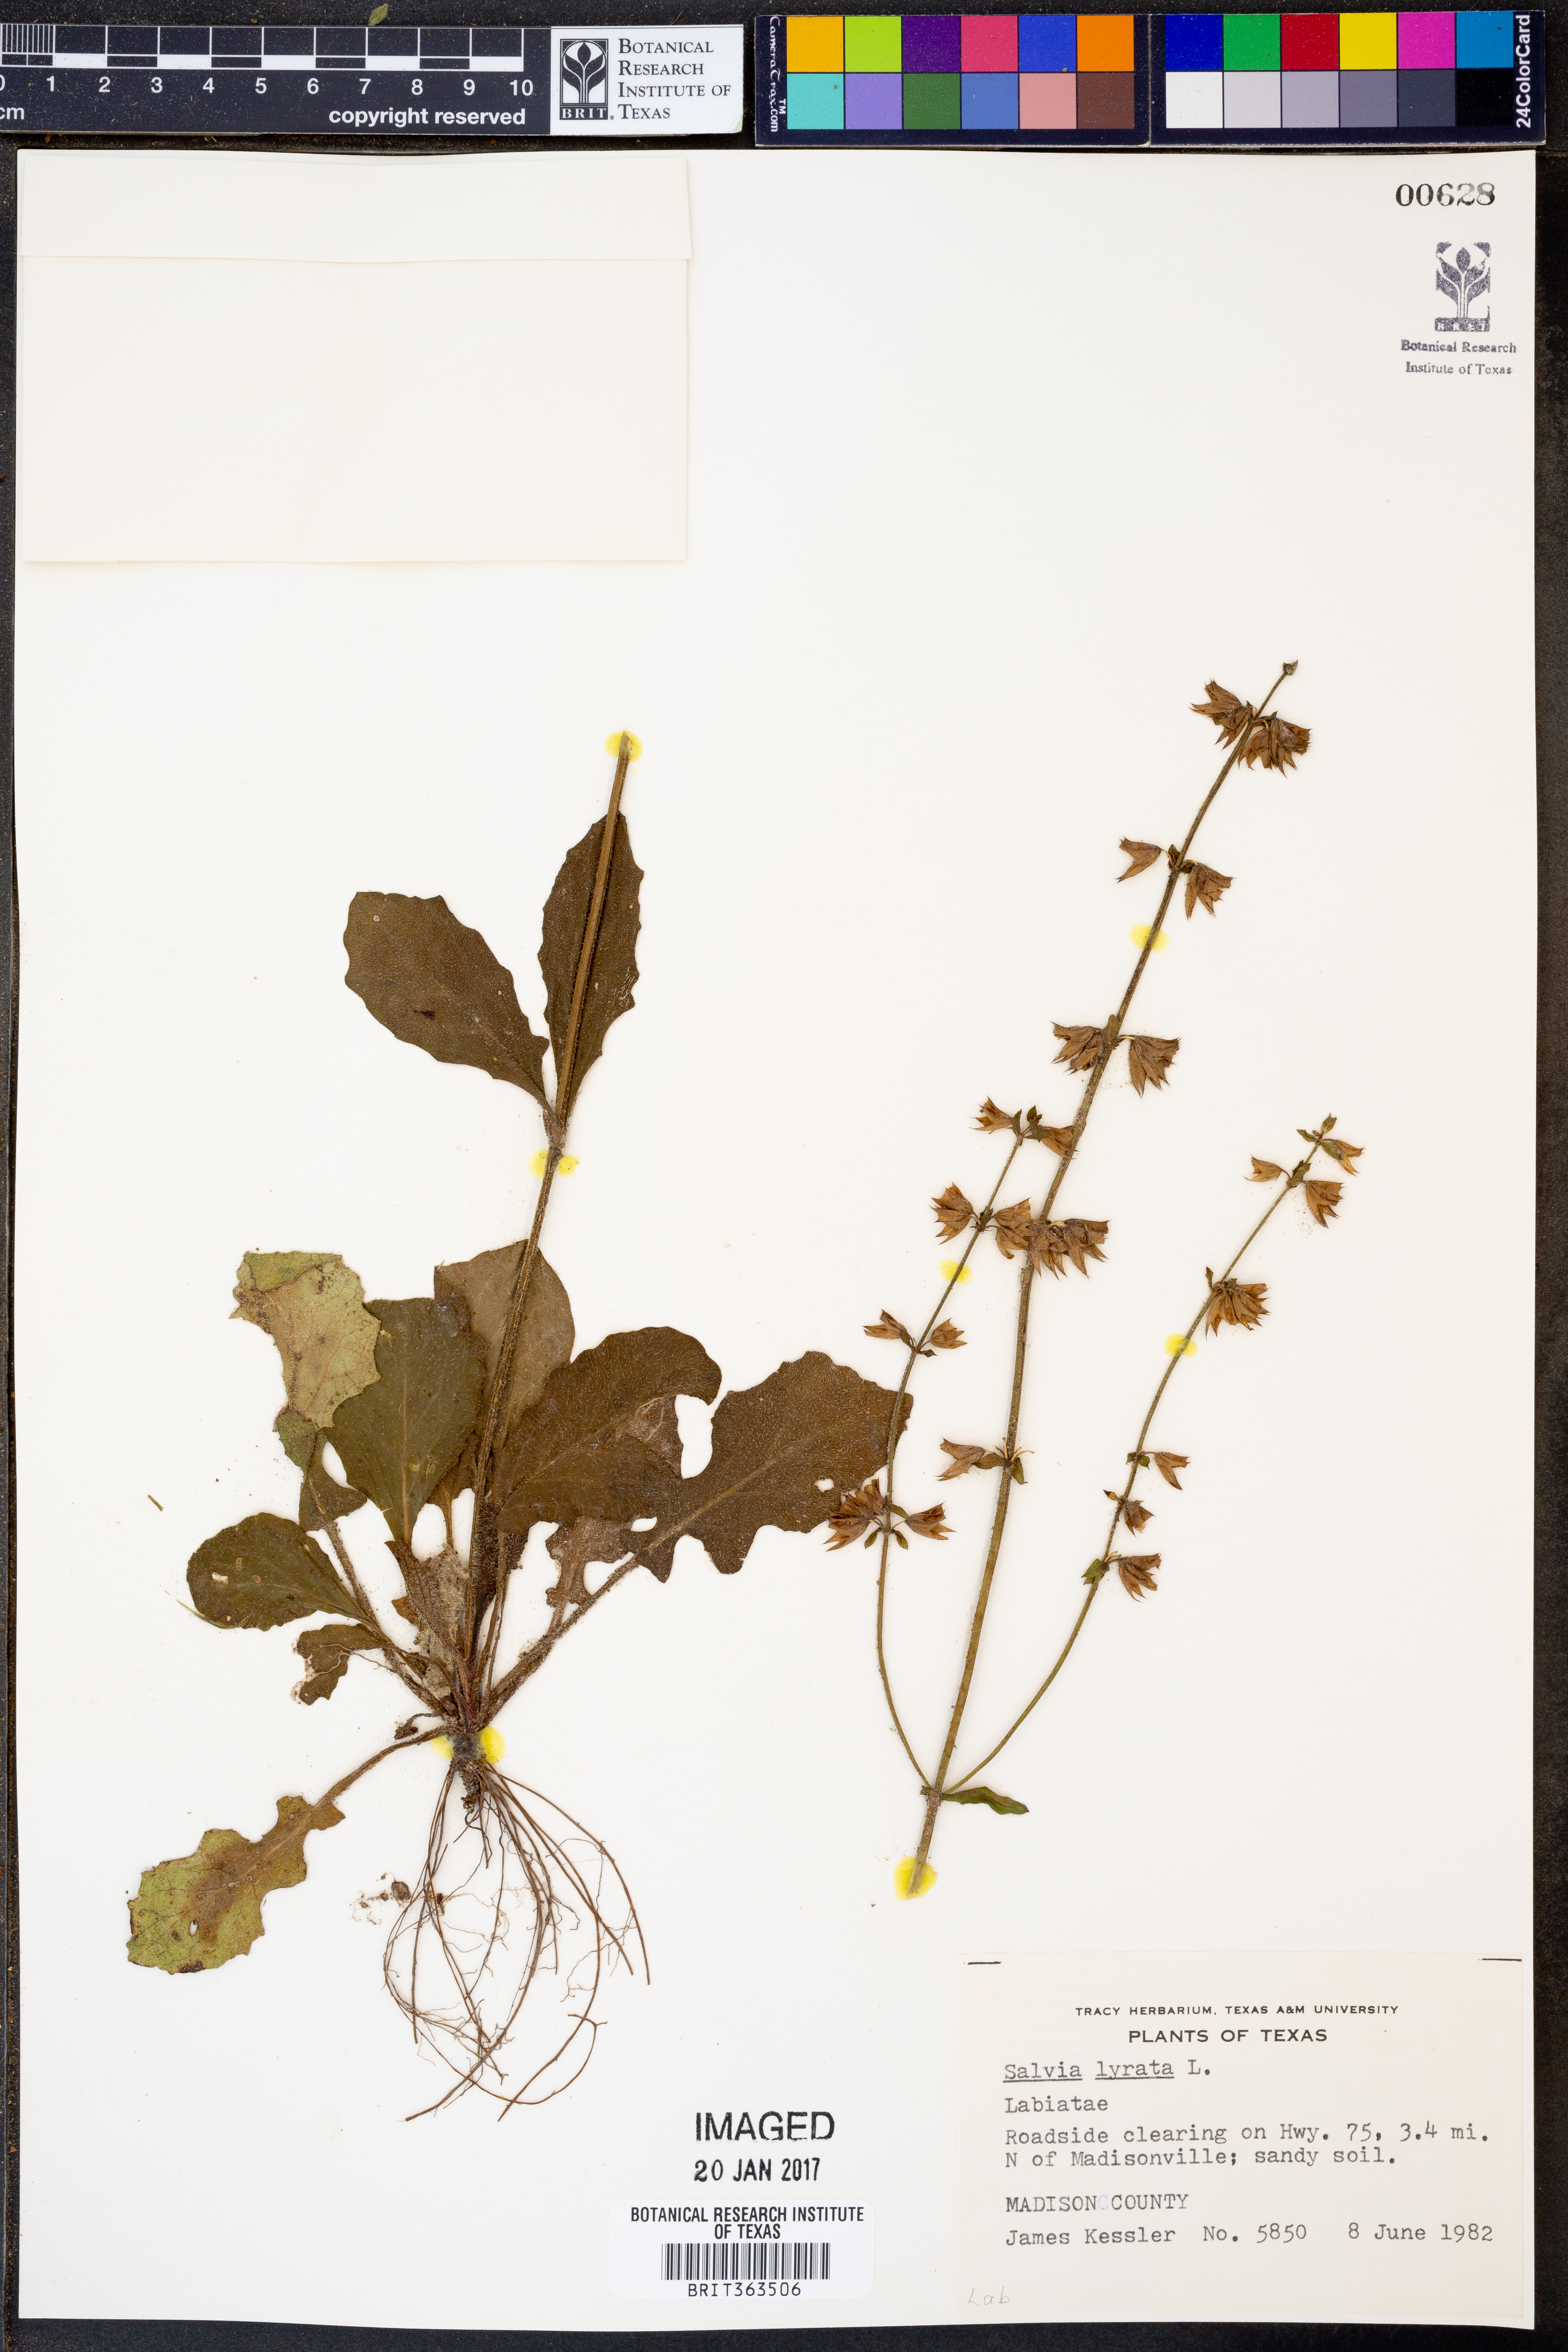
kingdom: Plantae
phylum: Tracheophyta
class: Magnoliopsida
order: Lamiales
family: Lamiaceae
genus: Salvia
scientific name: Salvia lyrata
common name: Cancerweed
